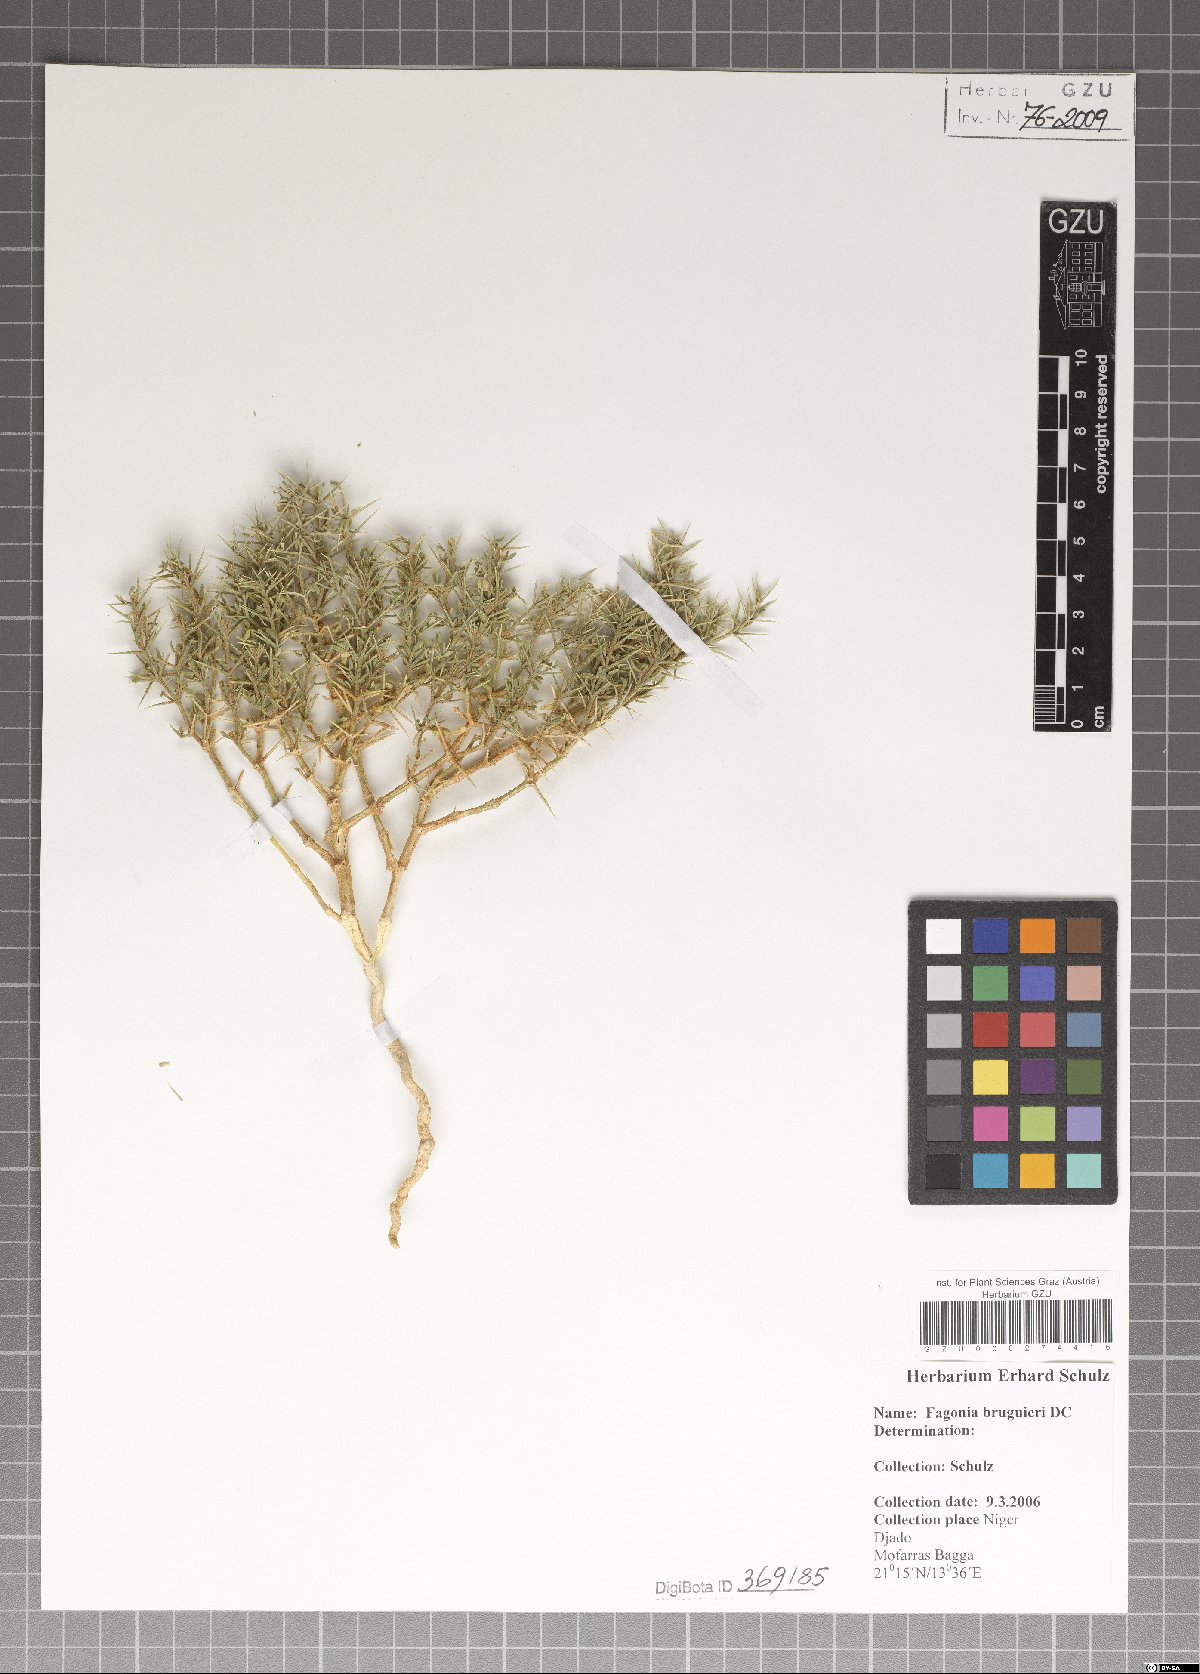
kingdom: Plantae
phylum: Tracheophyta
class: Magnoliopsida
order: Zygophyllales
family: Zygophyllaceae
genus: Fagonia
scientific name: Fagonia bruguieri
